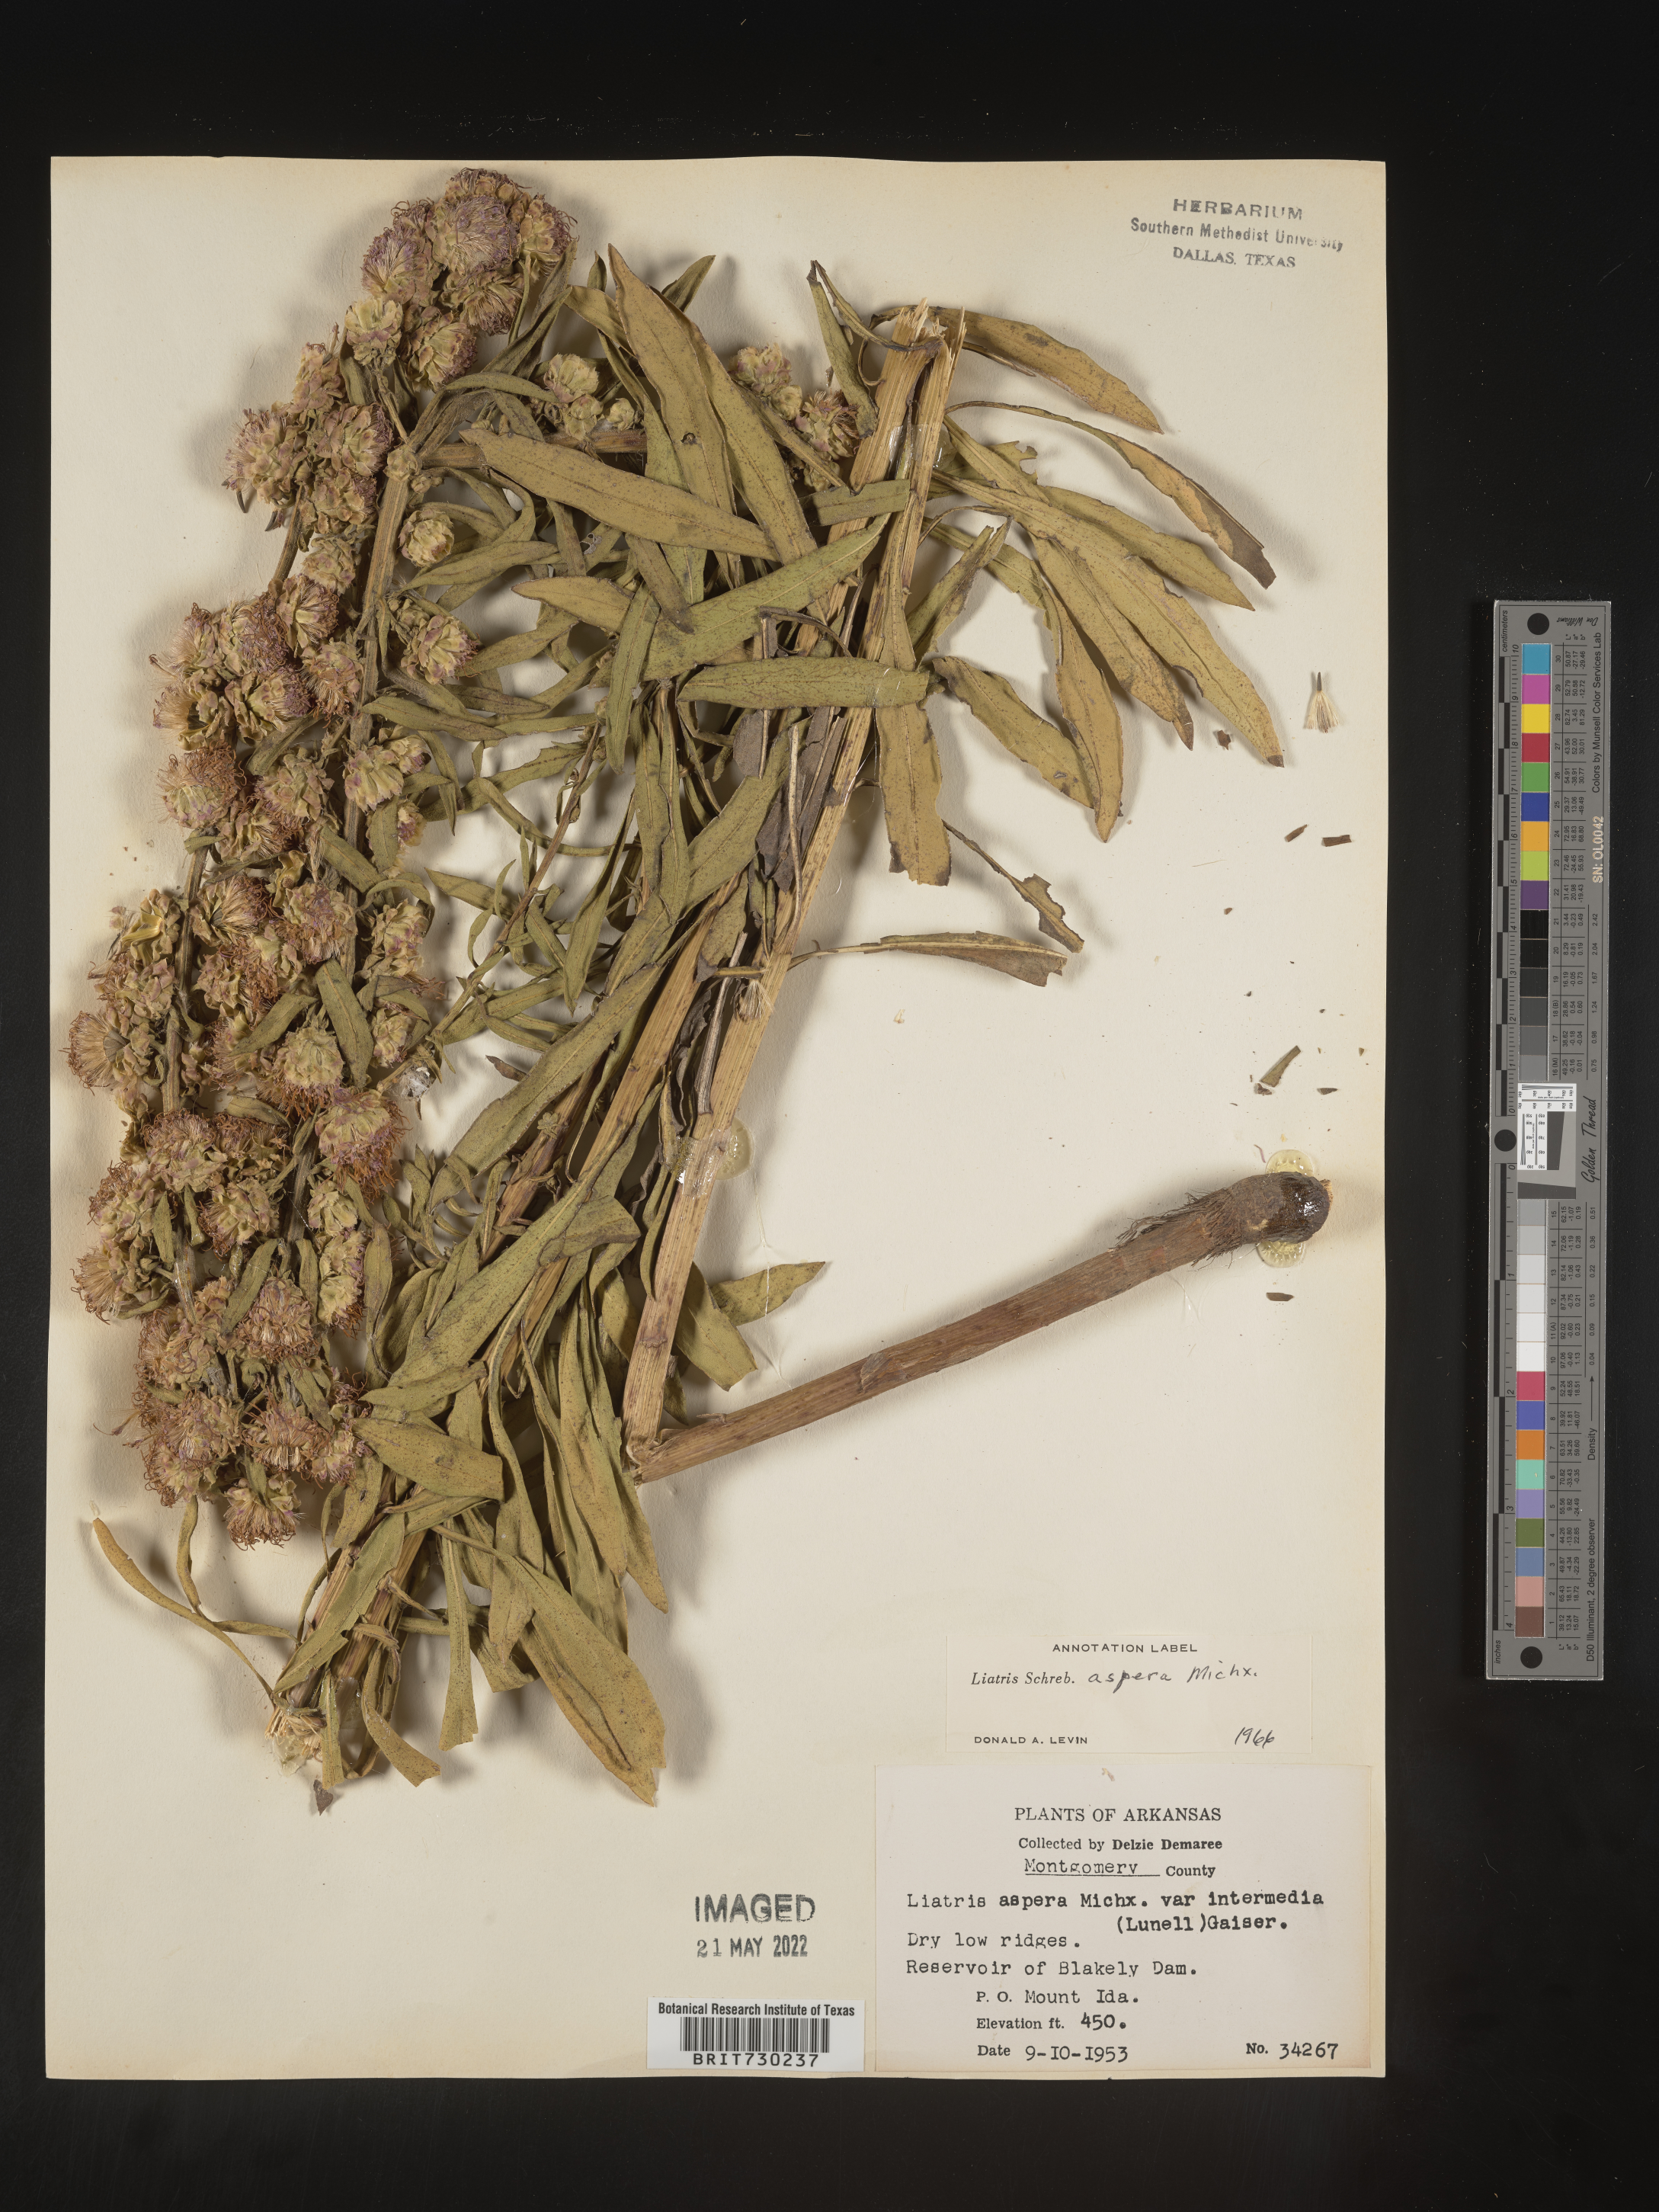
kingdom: Plantae
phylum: Tracheophyta
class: Magnoliopsida
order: Asterales
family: Asteraceae
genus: Liatris
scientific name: Liatris aspera
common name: Lacerate blazing-star
